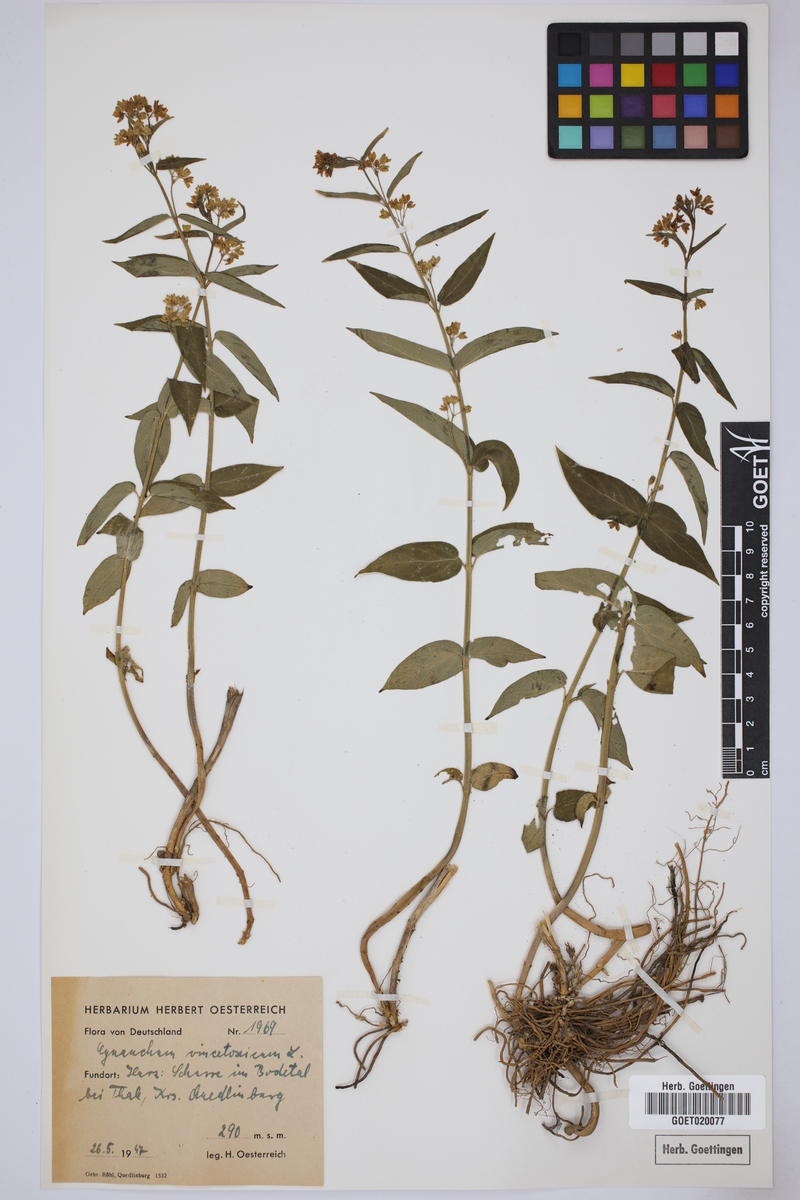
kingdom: Plantae
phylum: Tracheophyta
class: Magnoliopsida
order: Gentianales
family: Apocynaceae
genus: Vincetoxicum
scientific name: Vincetoxicum hirundinaria
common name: White swallowwort
